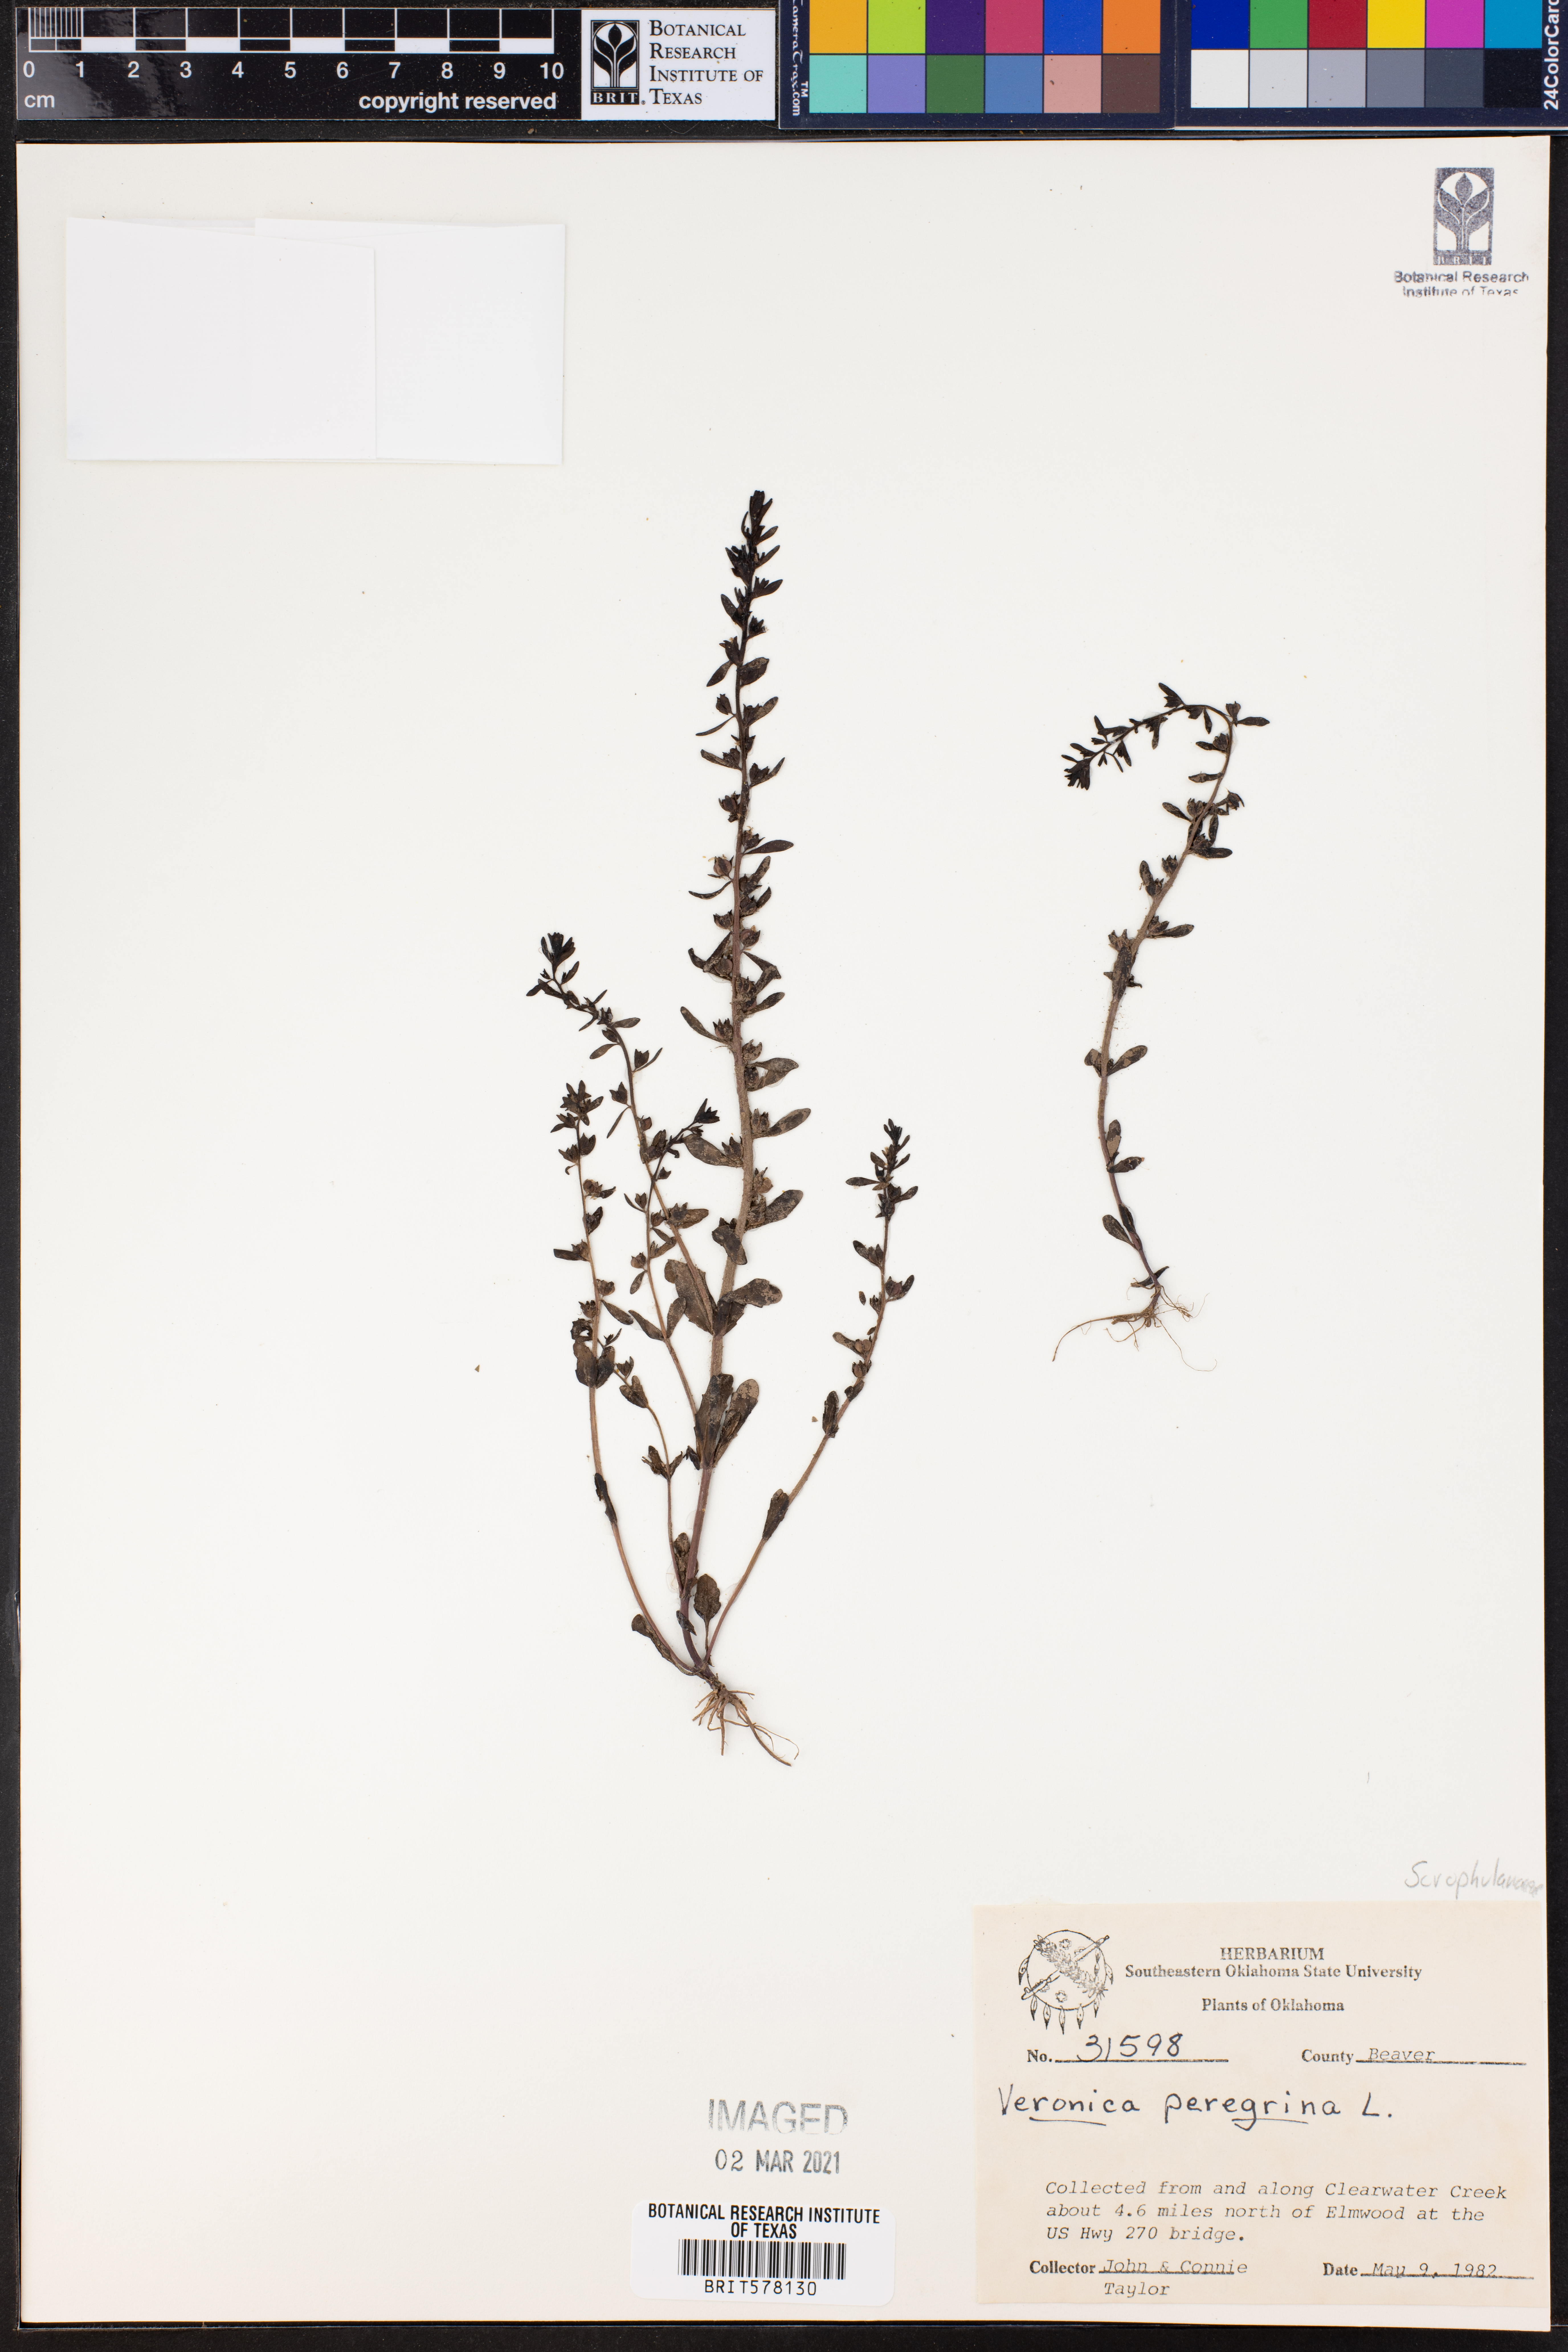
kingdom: Plantae
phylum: Tracheophyta
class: Magnoliopsida
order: Lamiales
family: Plantaginaceae
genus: Veronica
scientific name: Veronica peregrina
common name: Neckweed
